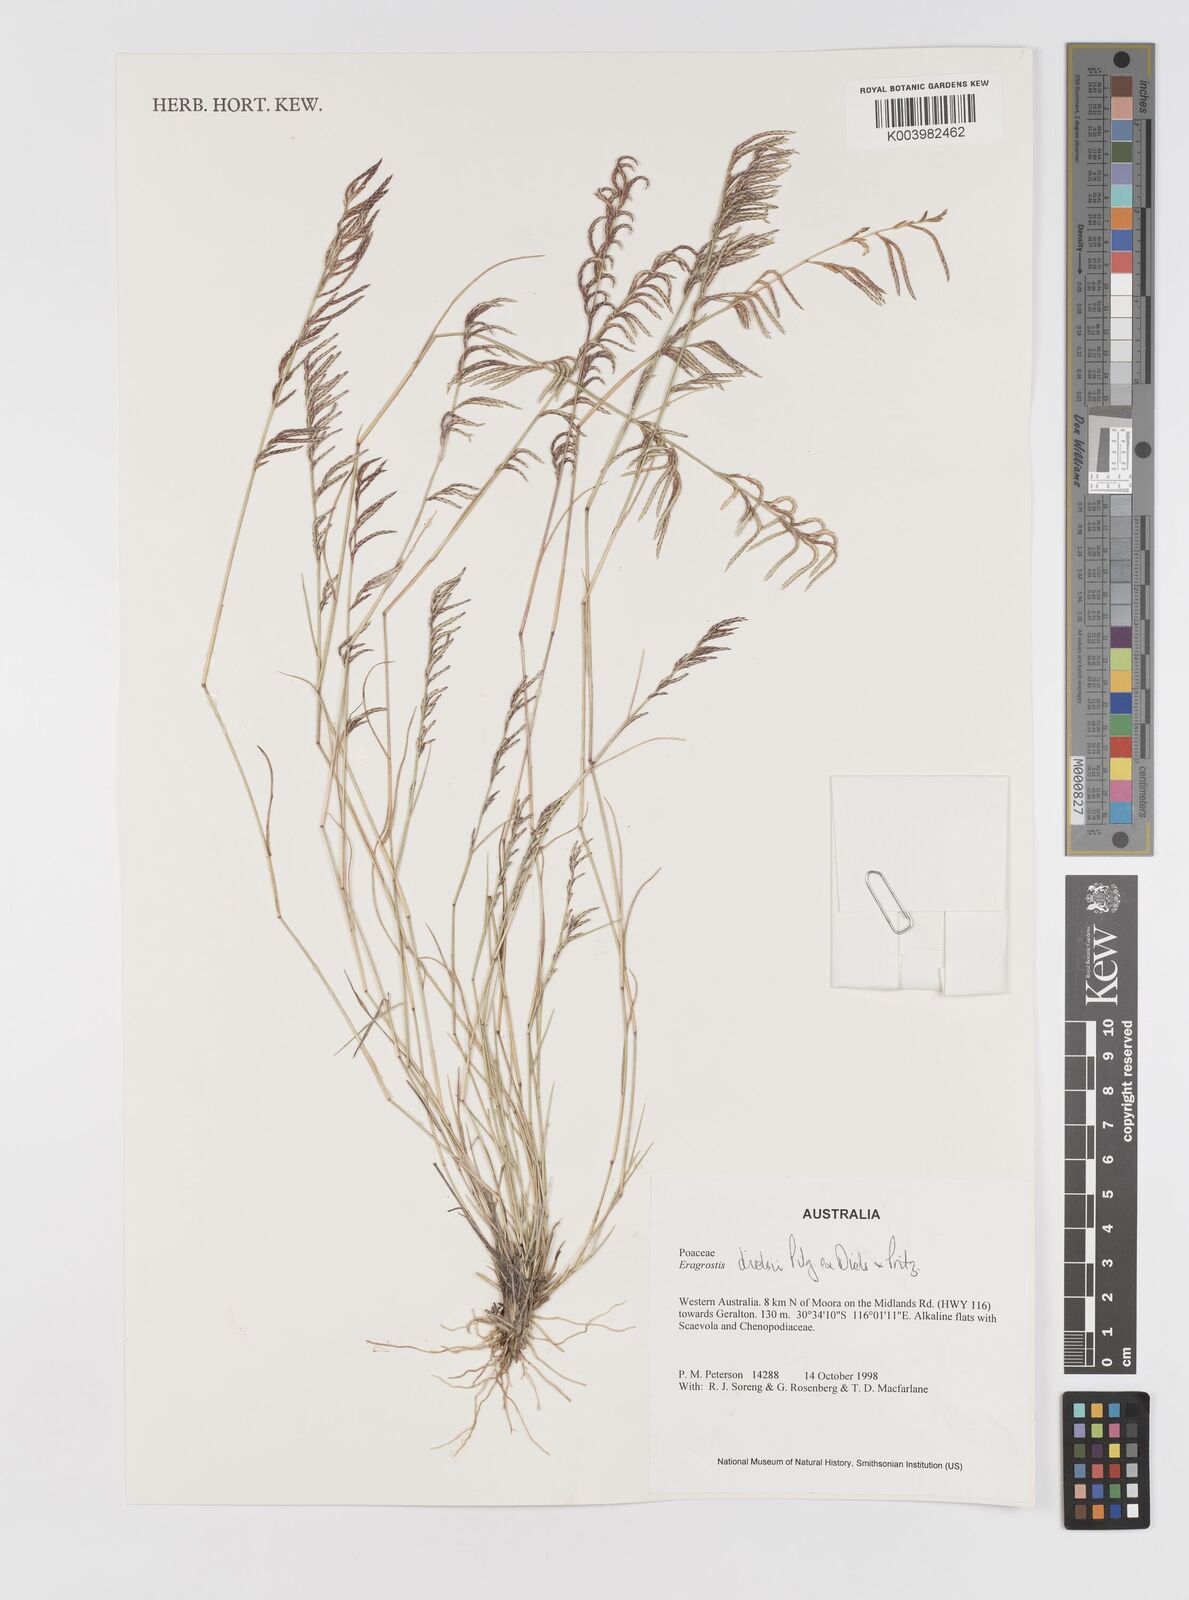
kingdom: Plantae
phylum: Tracheophyta
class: Liliopsida
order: Poales
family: Poaceae
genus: Eragrostis
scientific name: Eragrostis dielsii
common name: Lovegrass
